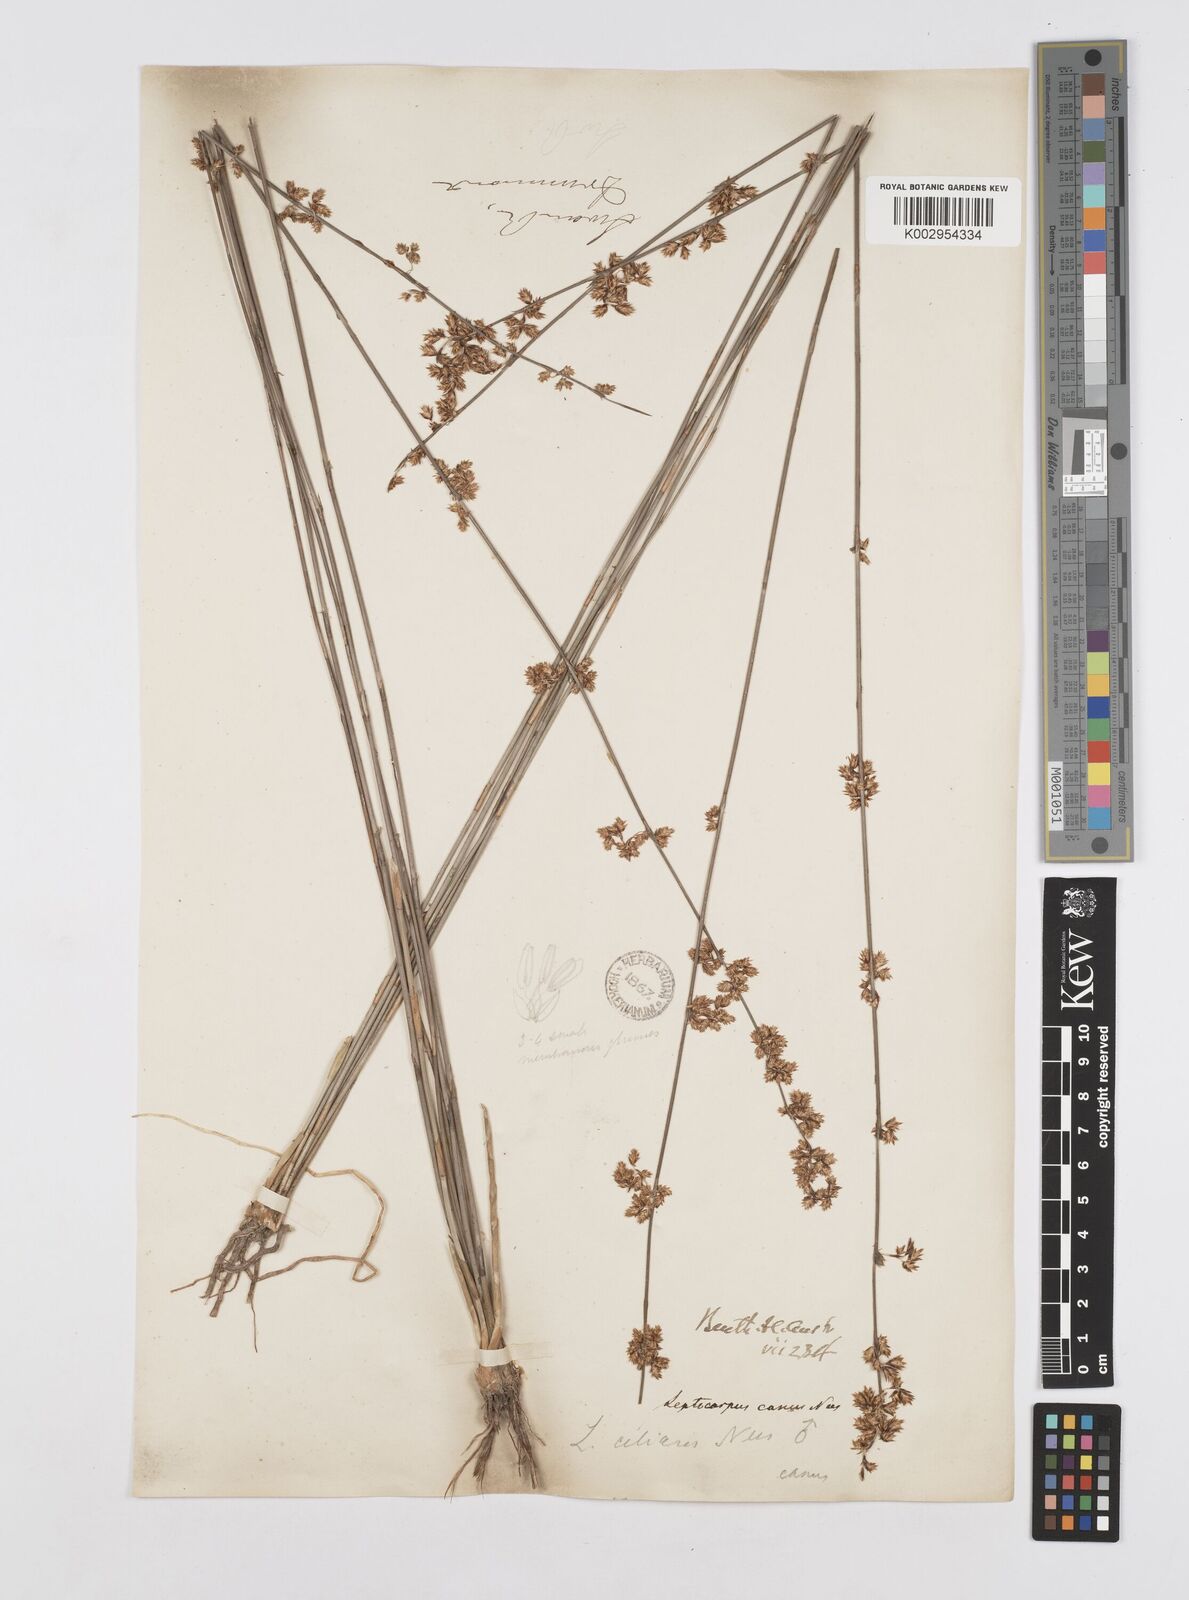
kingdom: Plantae
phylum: Tracheophyta
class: Liliopsida
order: Poales
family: Restionaceae
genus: Leptocarpus
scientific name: Leptocarpus canus
